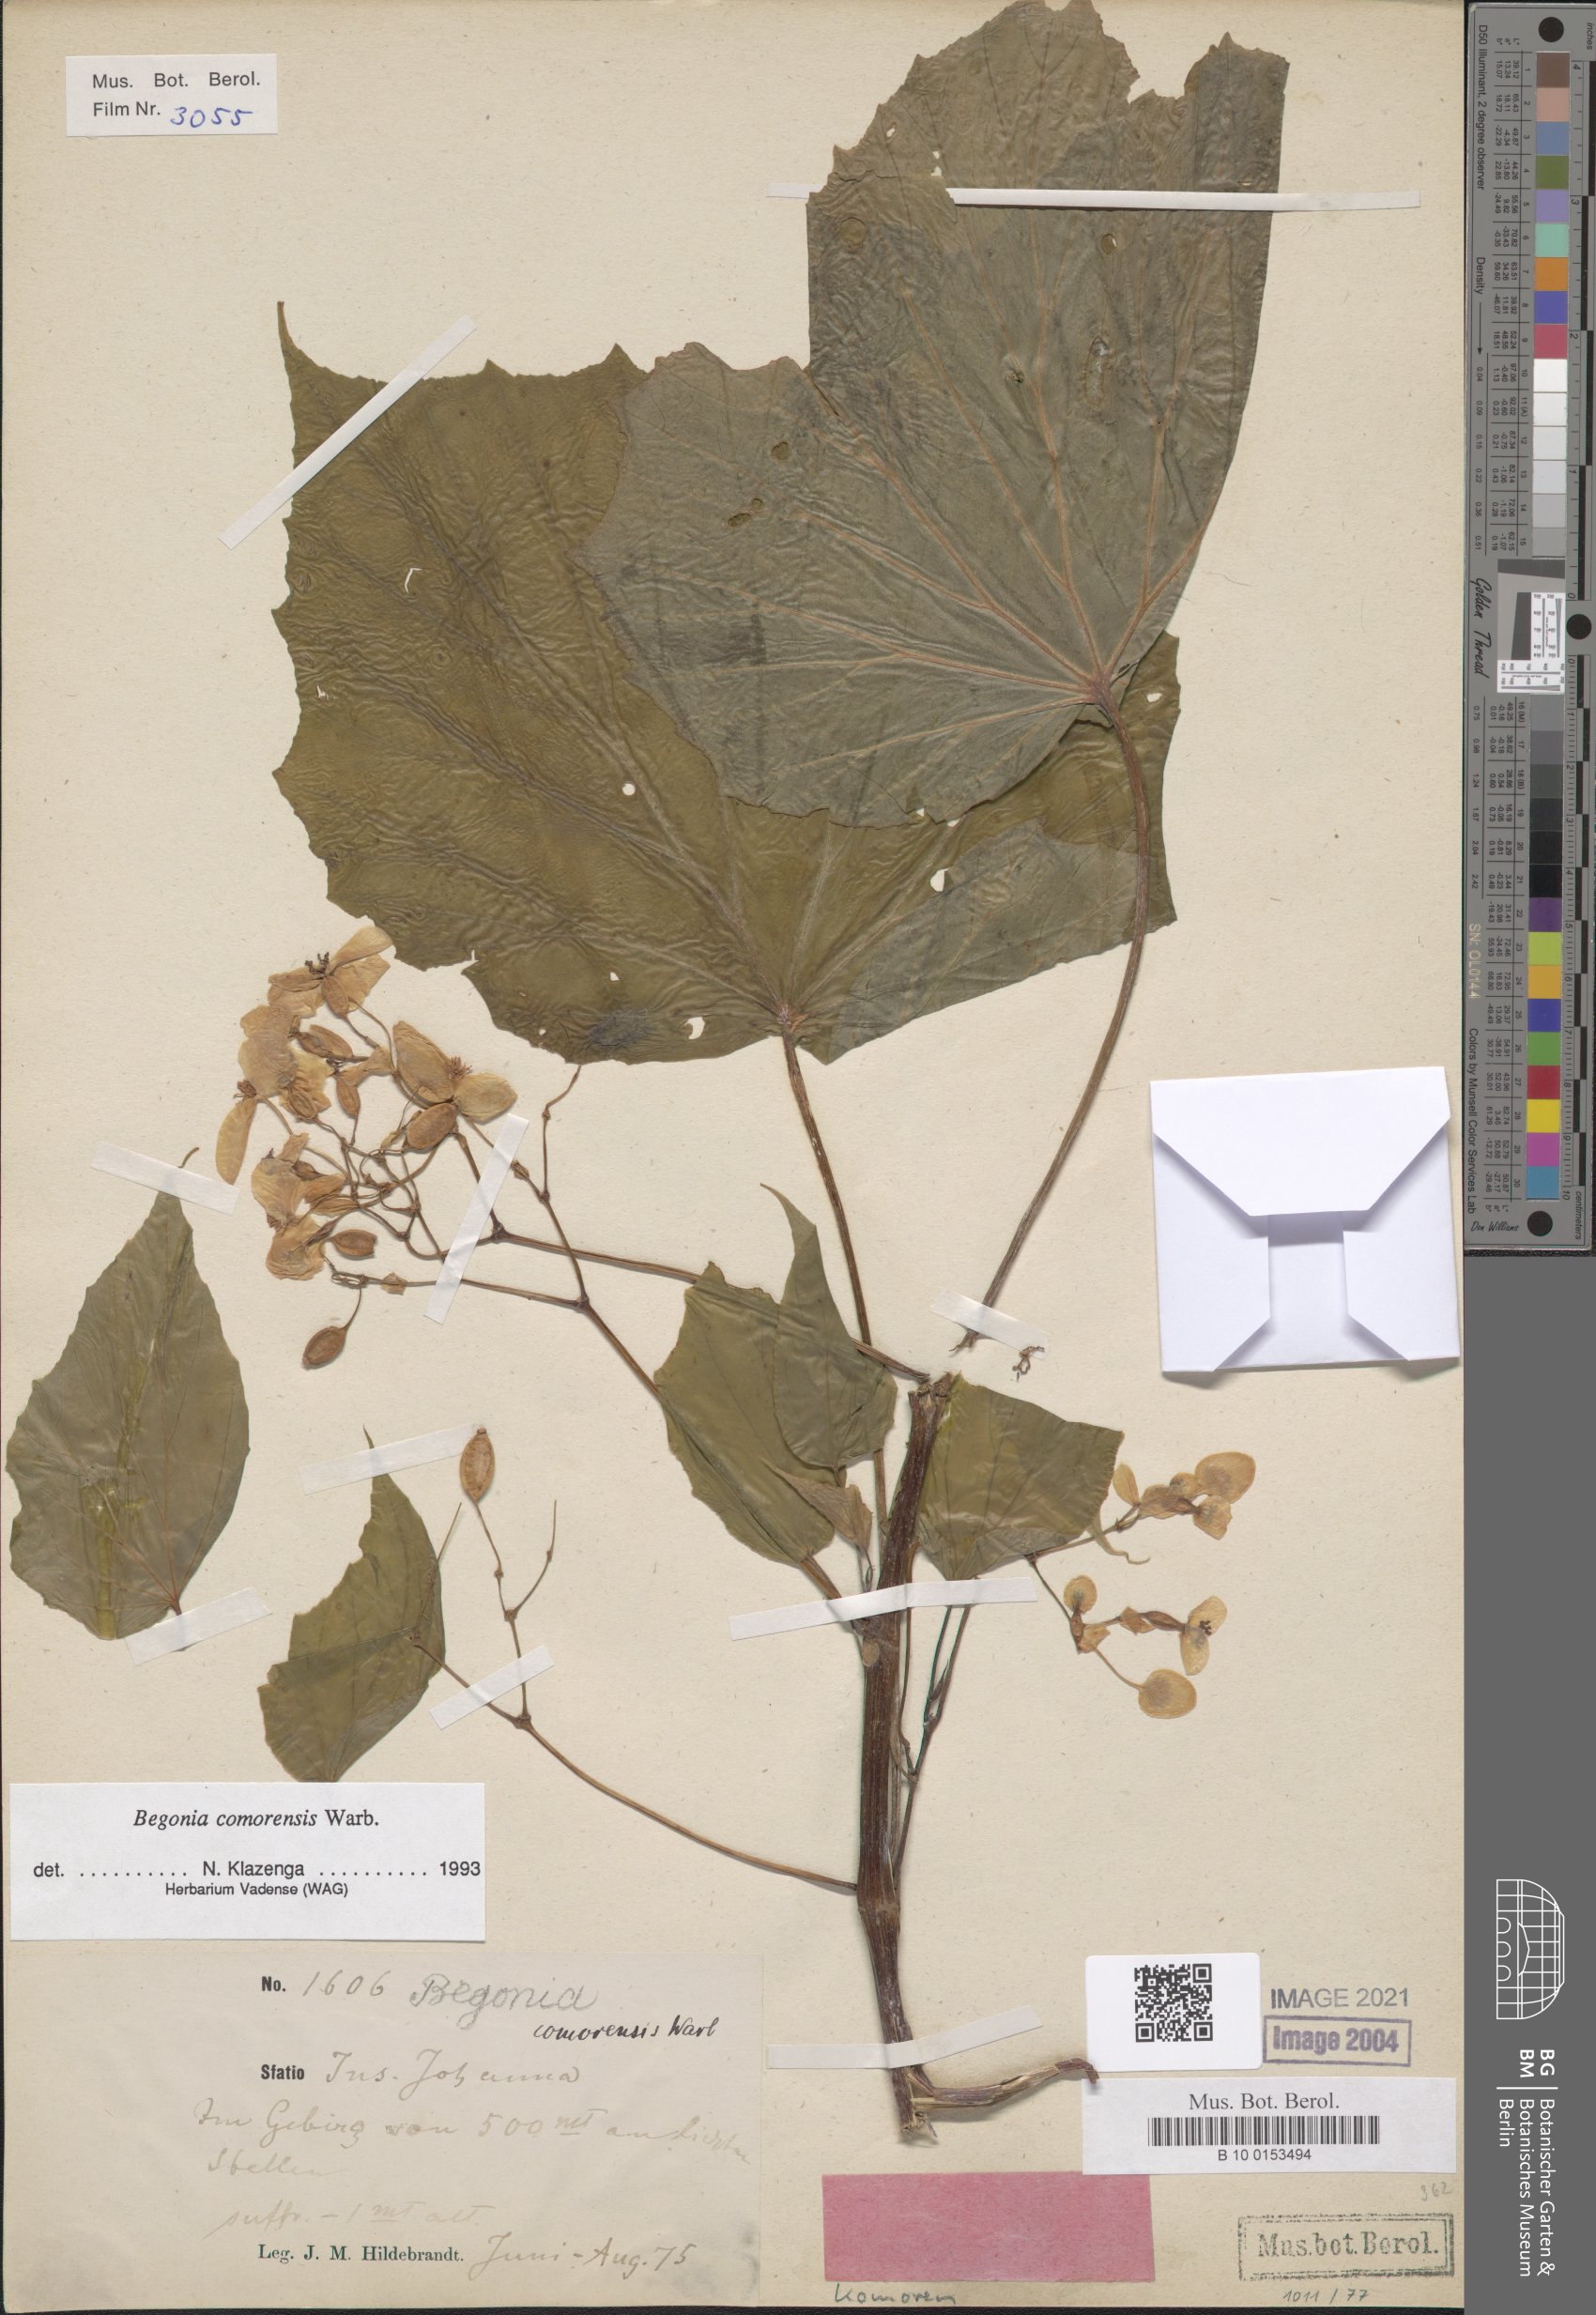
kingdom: Plantae
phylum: Tracheophyta
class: Magnoliopsida
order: Cucurbitales
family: Begoniaceae
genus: Begonia
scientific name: Begonia comorensis
